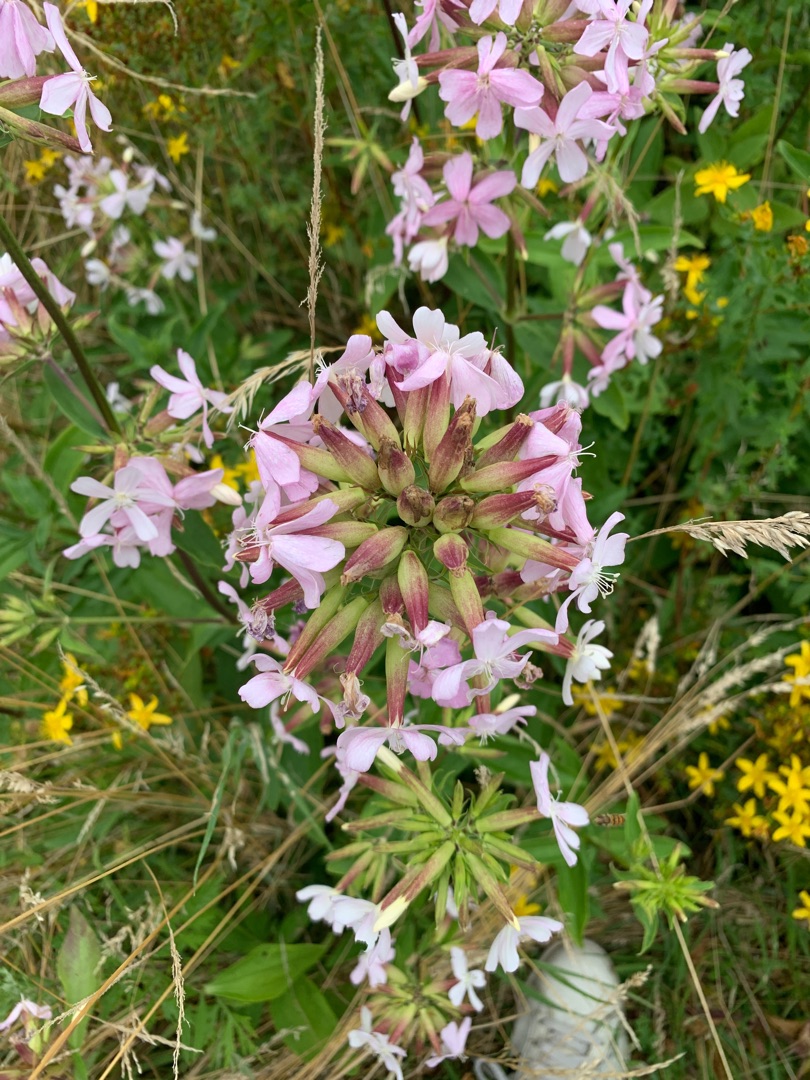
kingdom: Plantae
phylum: Tracheophyta
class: Magnoliopsida
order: Caryophyllales
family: Caryophyllaceae
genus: Saponaria
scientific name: Saponaria officinalis
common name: Sæbeurt
